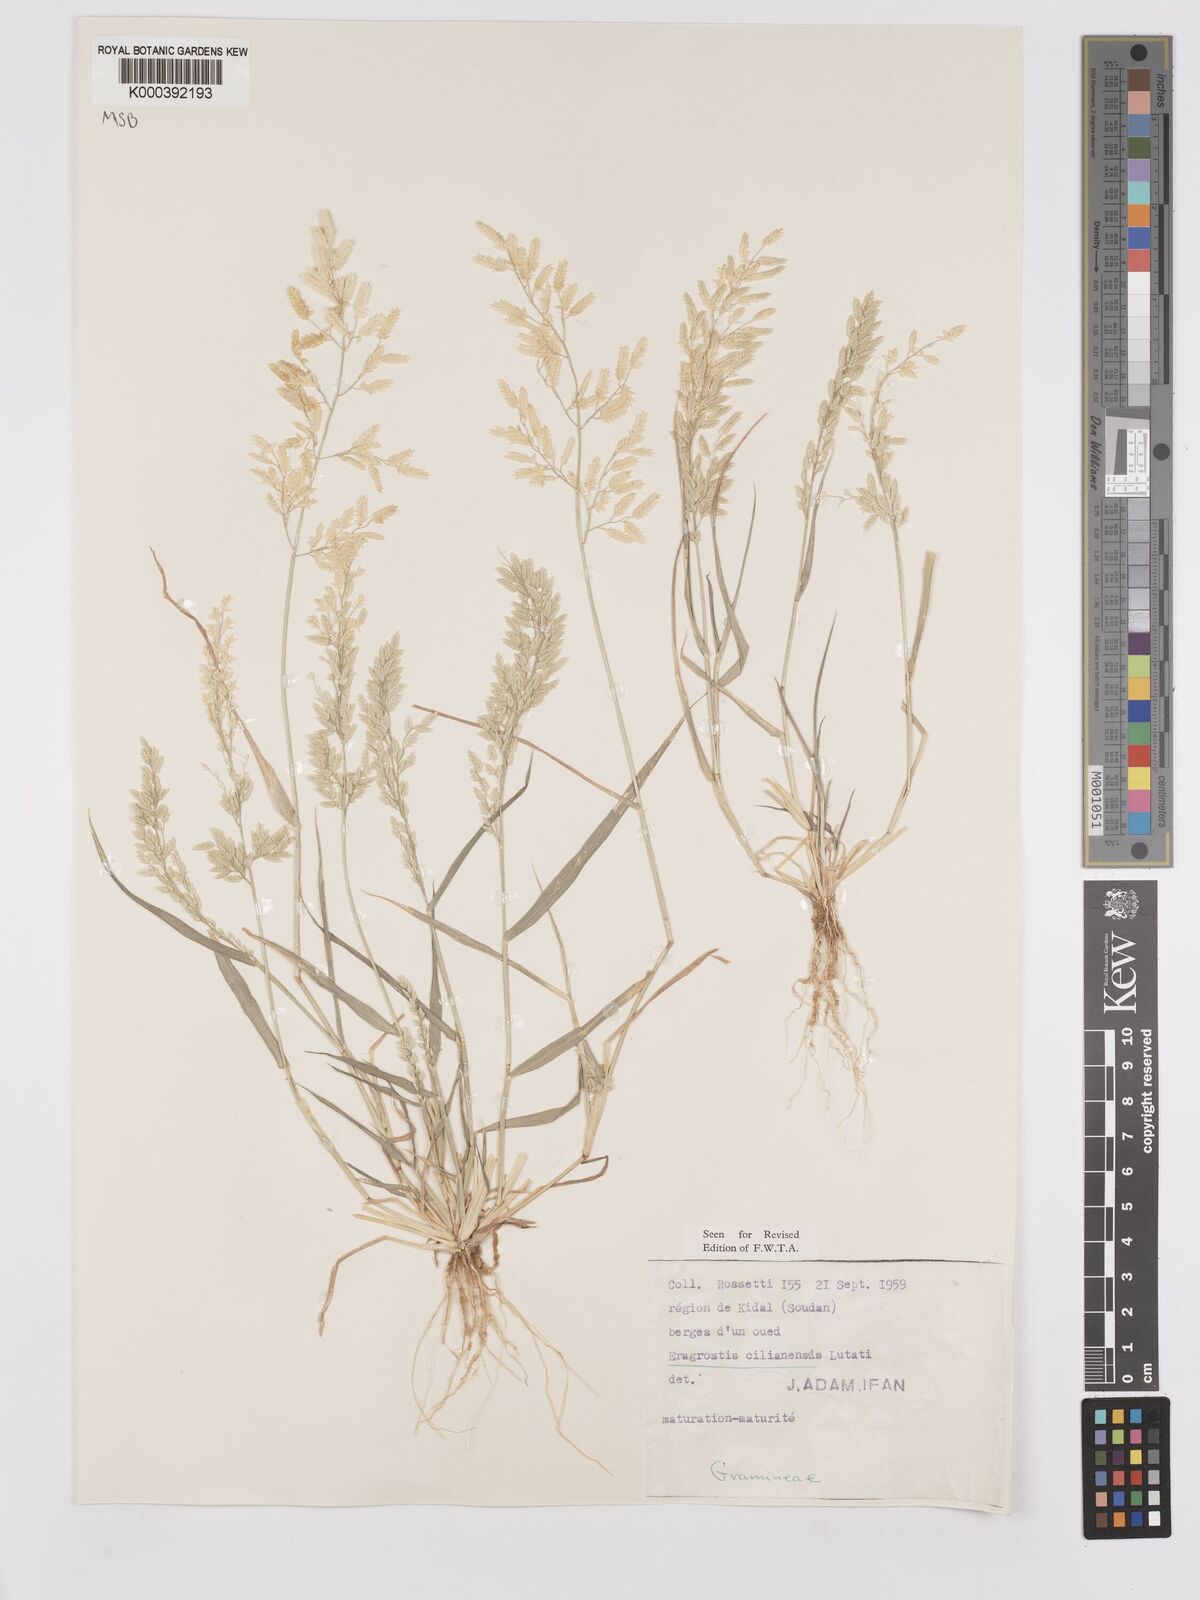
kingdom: Plantae
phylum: Tracheophyta
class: Liliopsida
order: Poales
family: Poaceae
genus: Eragrostis
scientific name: Eragrostis cilianensis
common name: Stinkgrass
